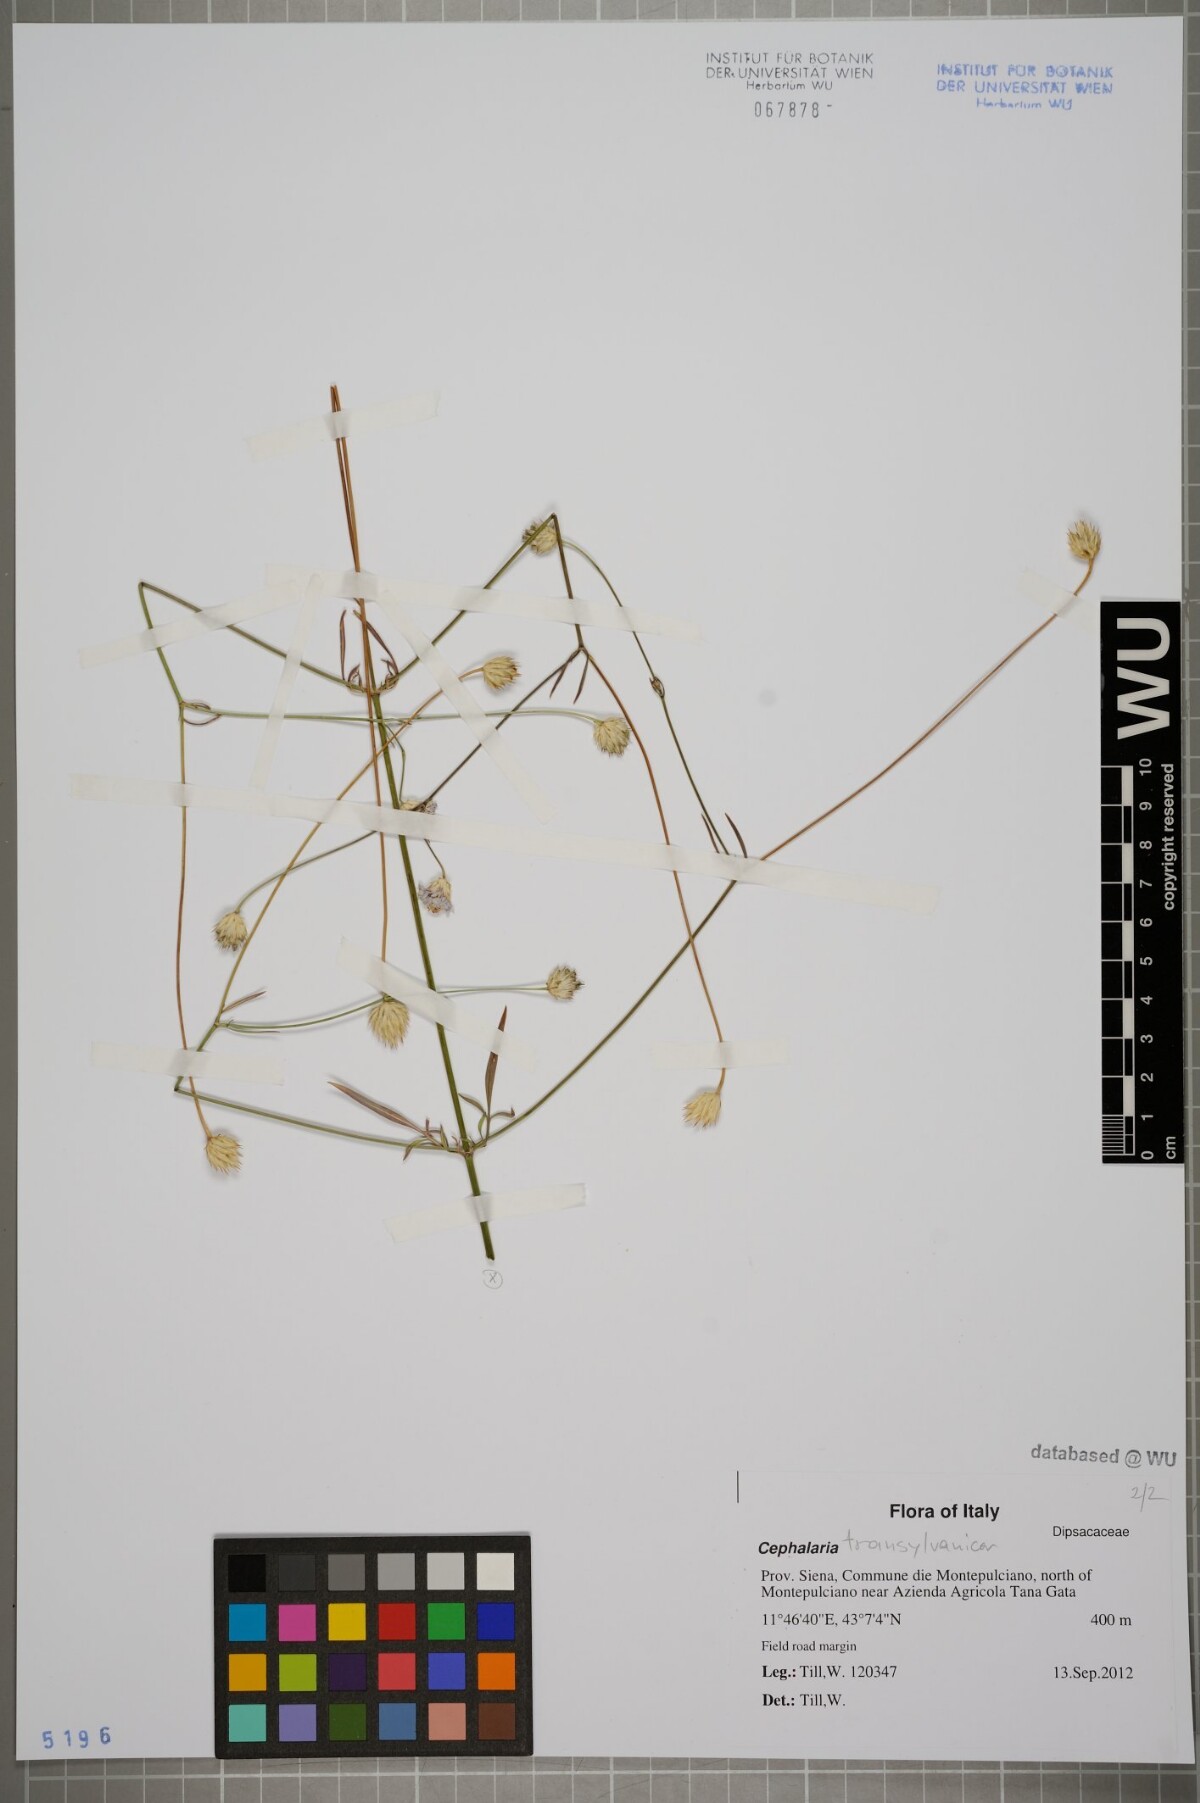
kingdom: Plantae
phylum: Tracheophyta
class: Magnoliopsida
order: Dipsacales
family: Caprifoliaceae
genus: Cephalaria
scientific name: Cephalaria transsylvanica
